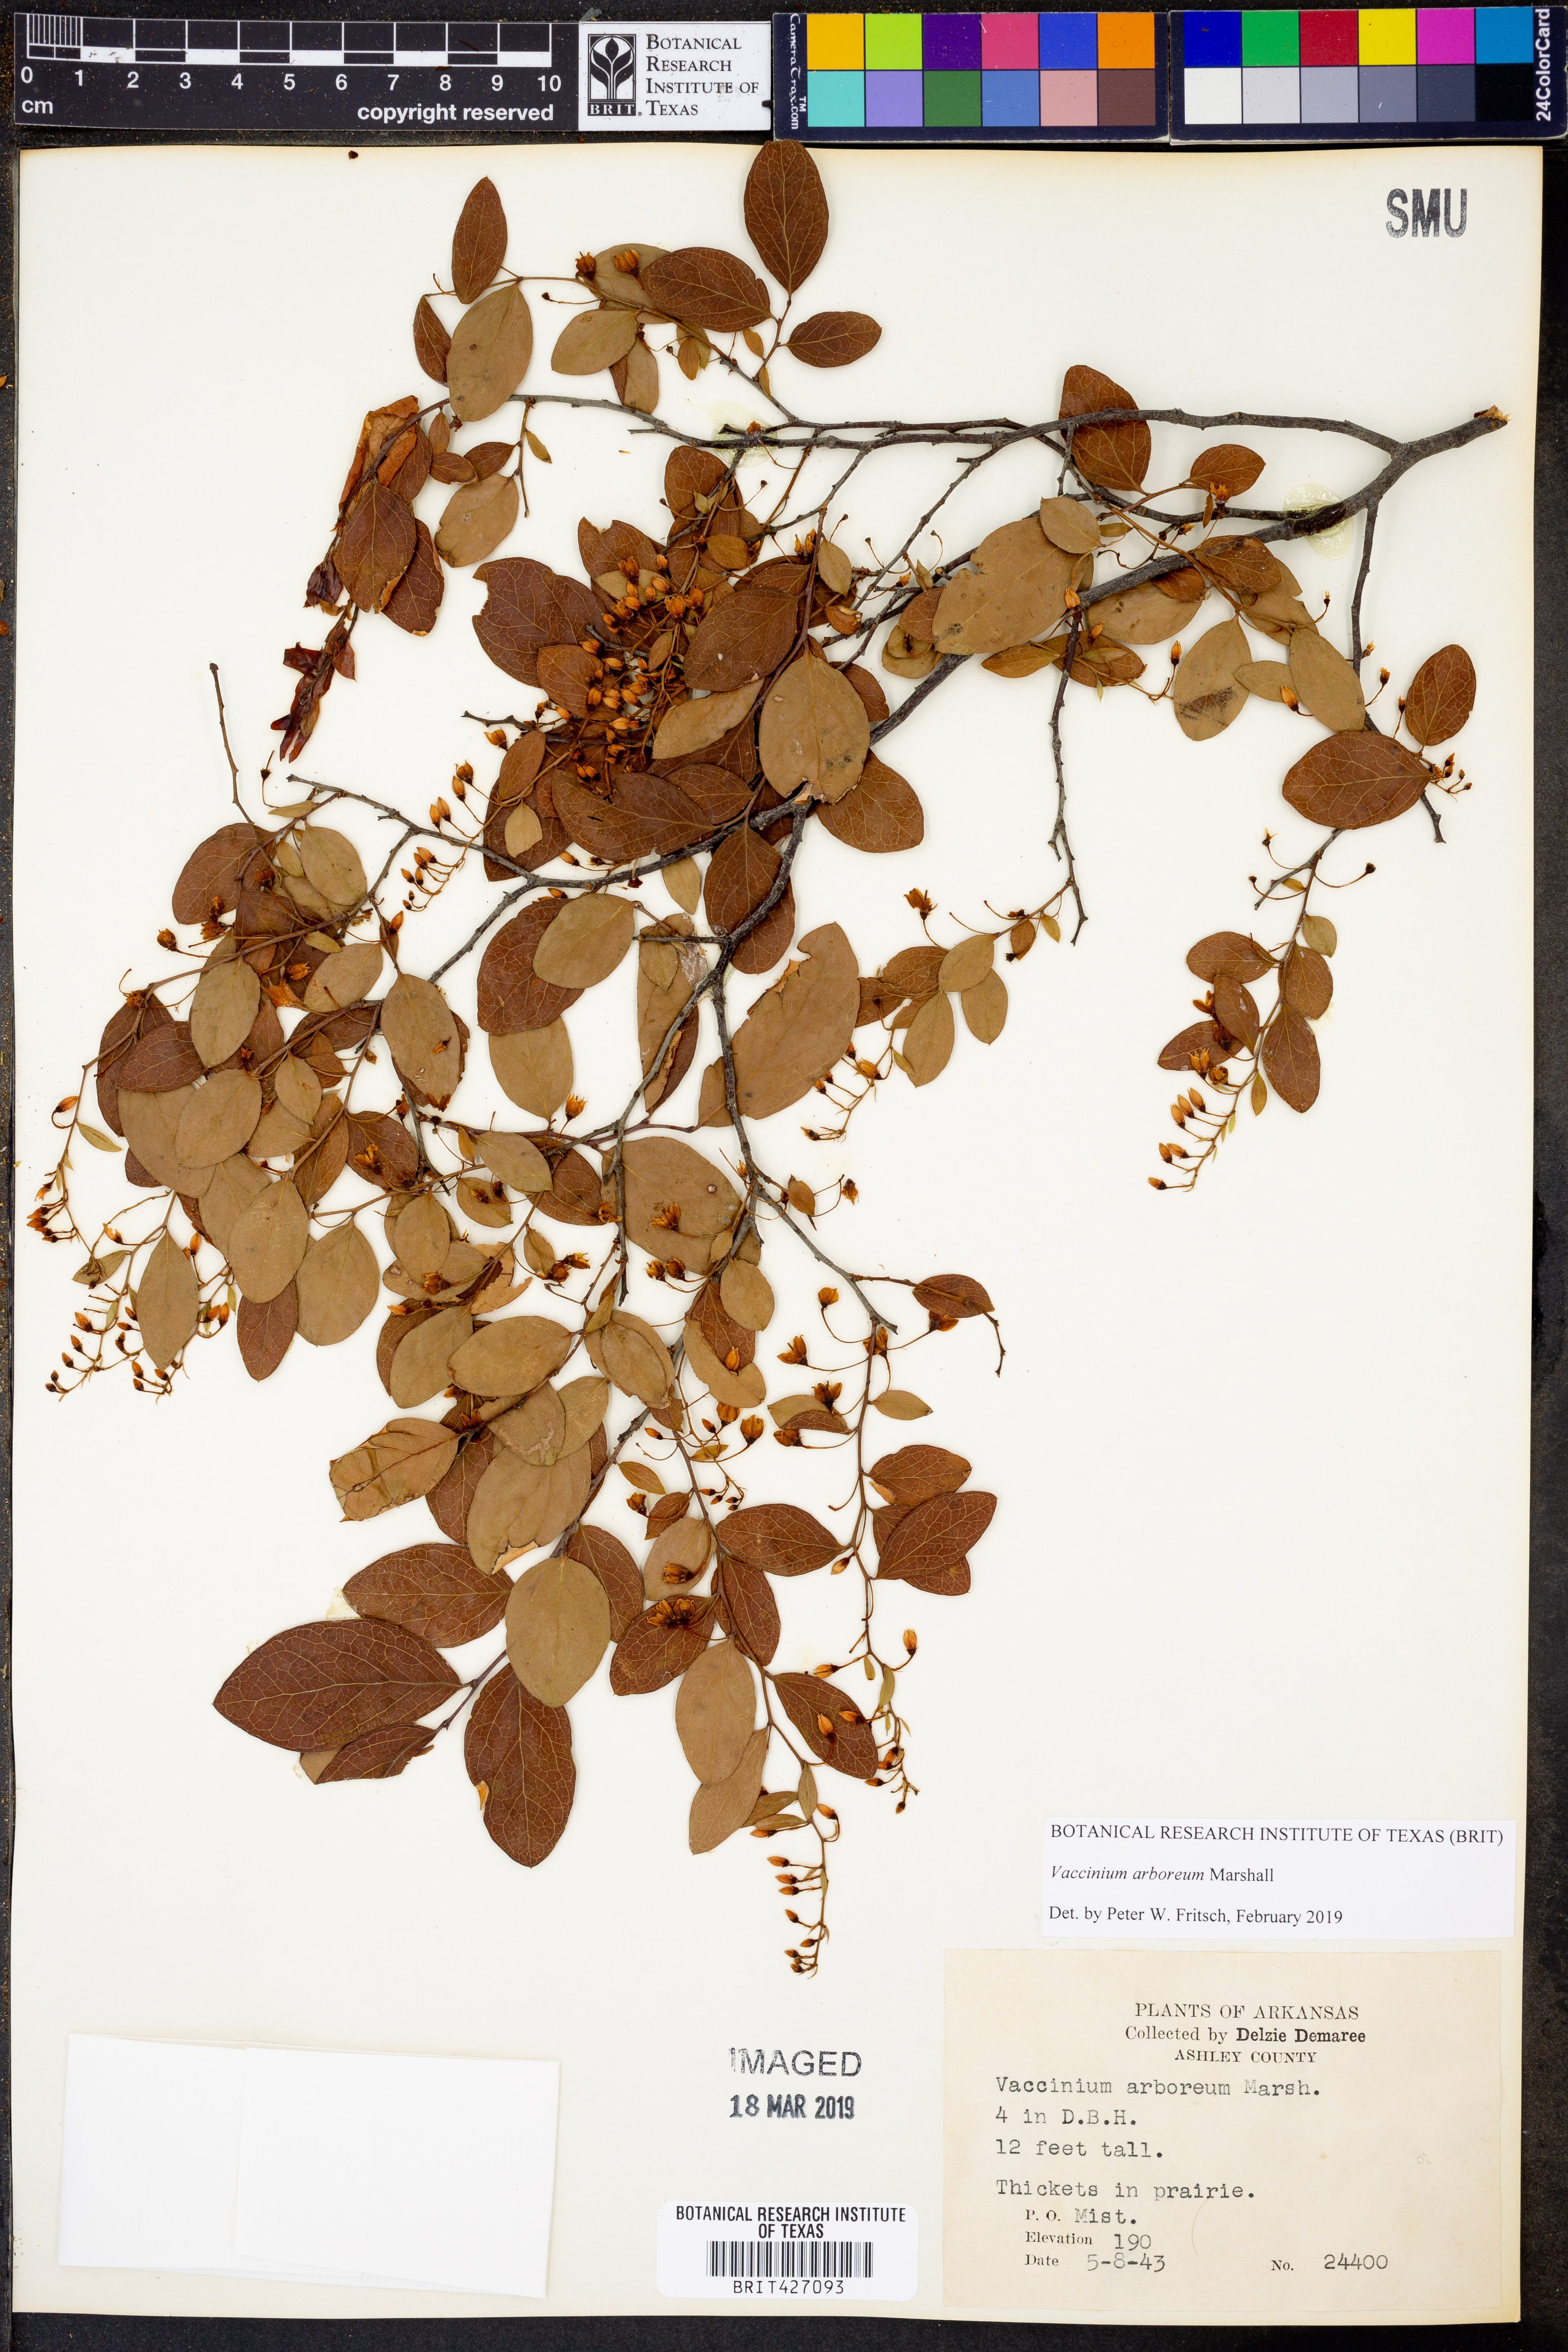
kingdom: Plantae
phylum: Tracheophyta
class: Magnoliopsida
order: Ericales
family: Ericaceae
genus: Vaccinium
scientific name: Vaccinium arboreum
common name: Farkleberry
